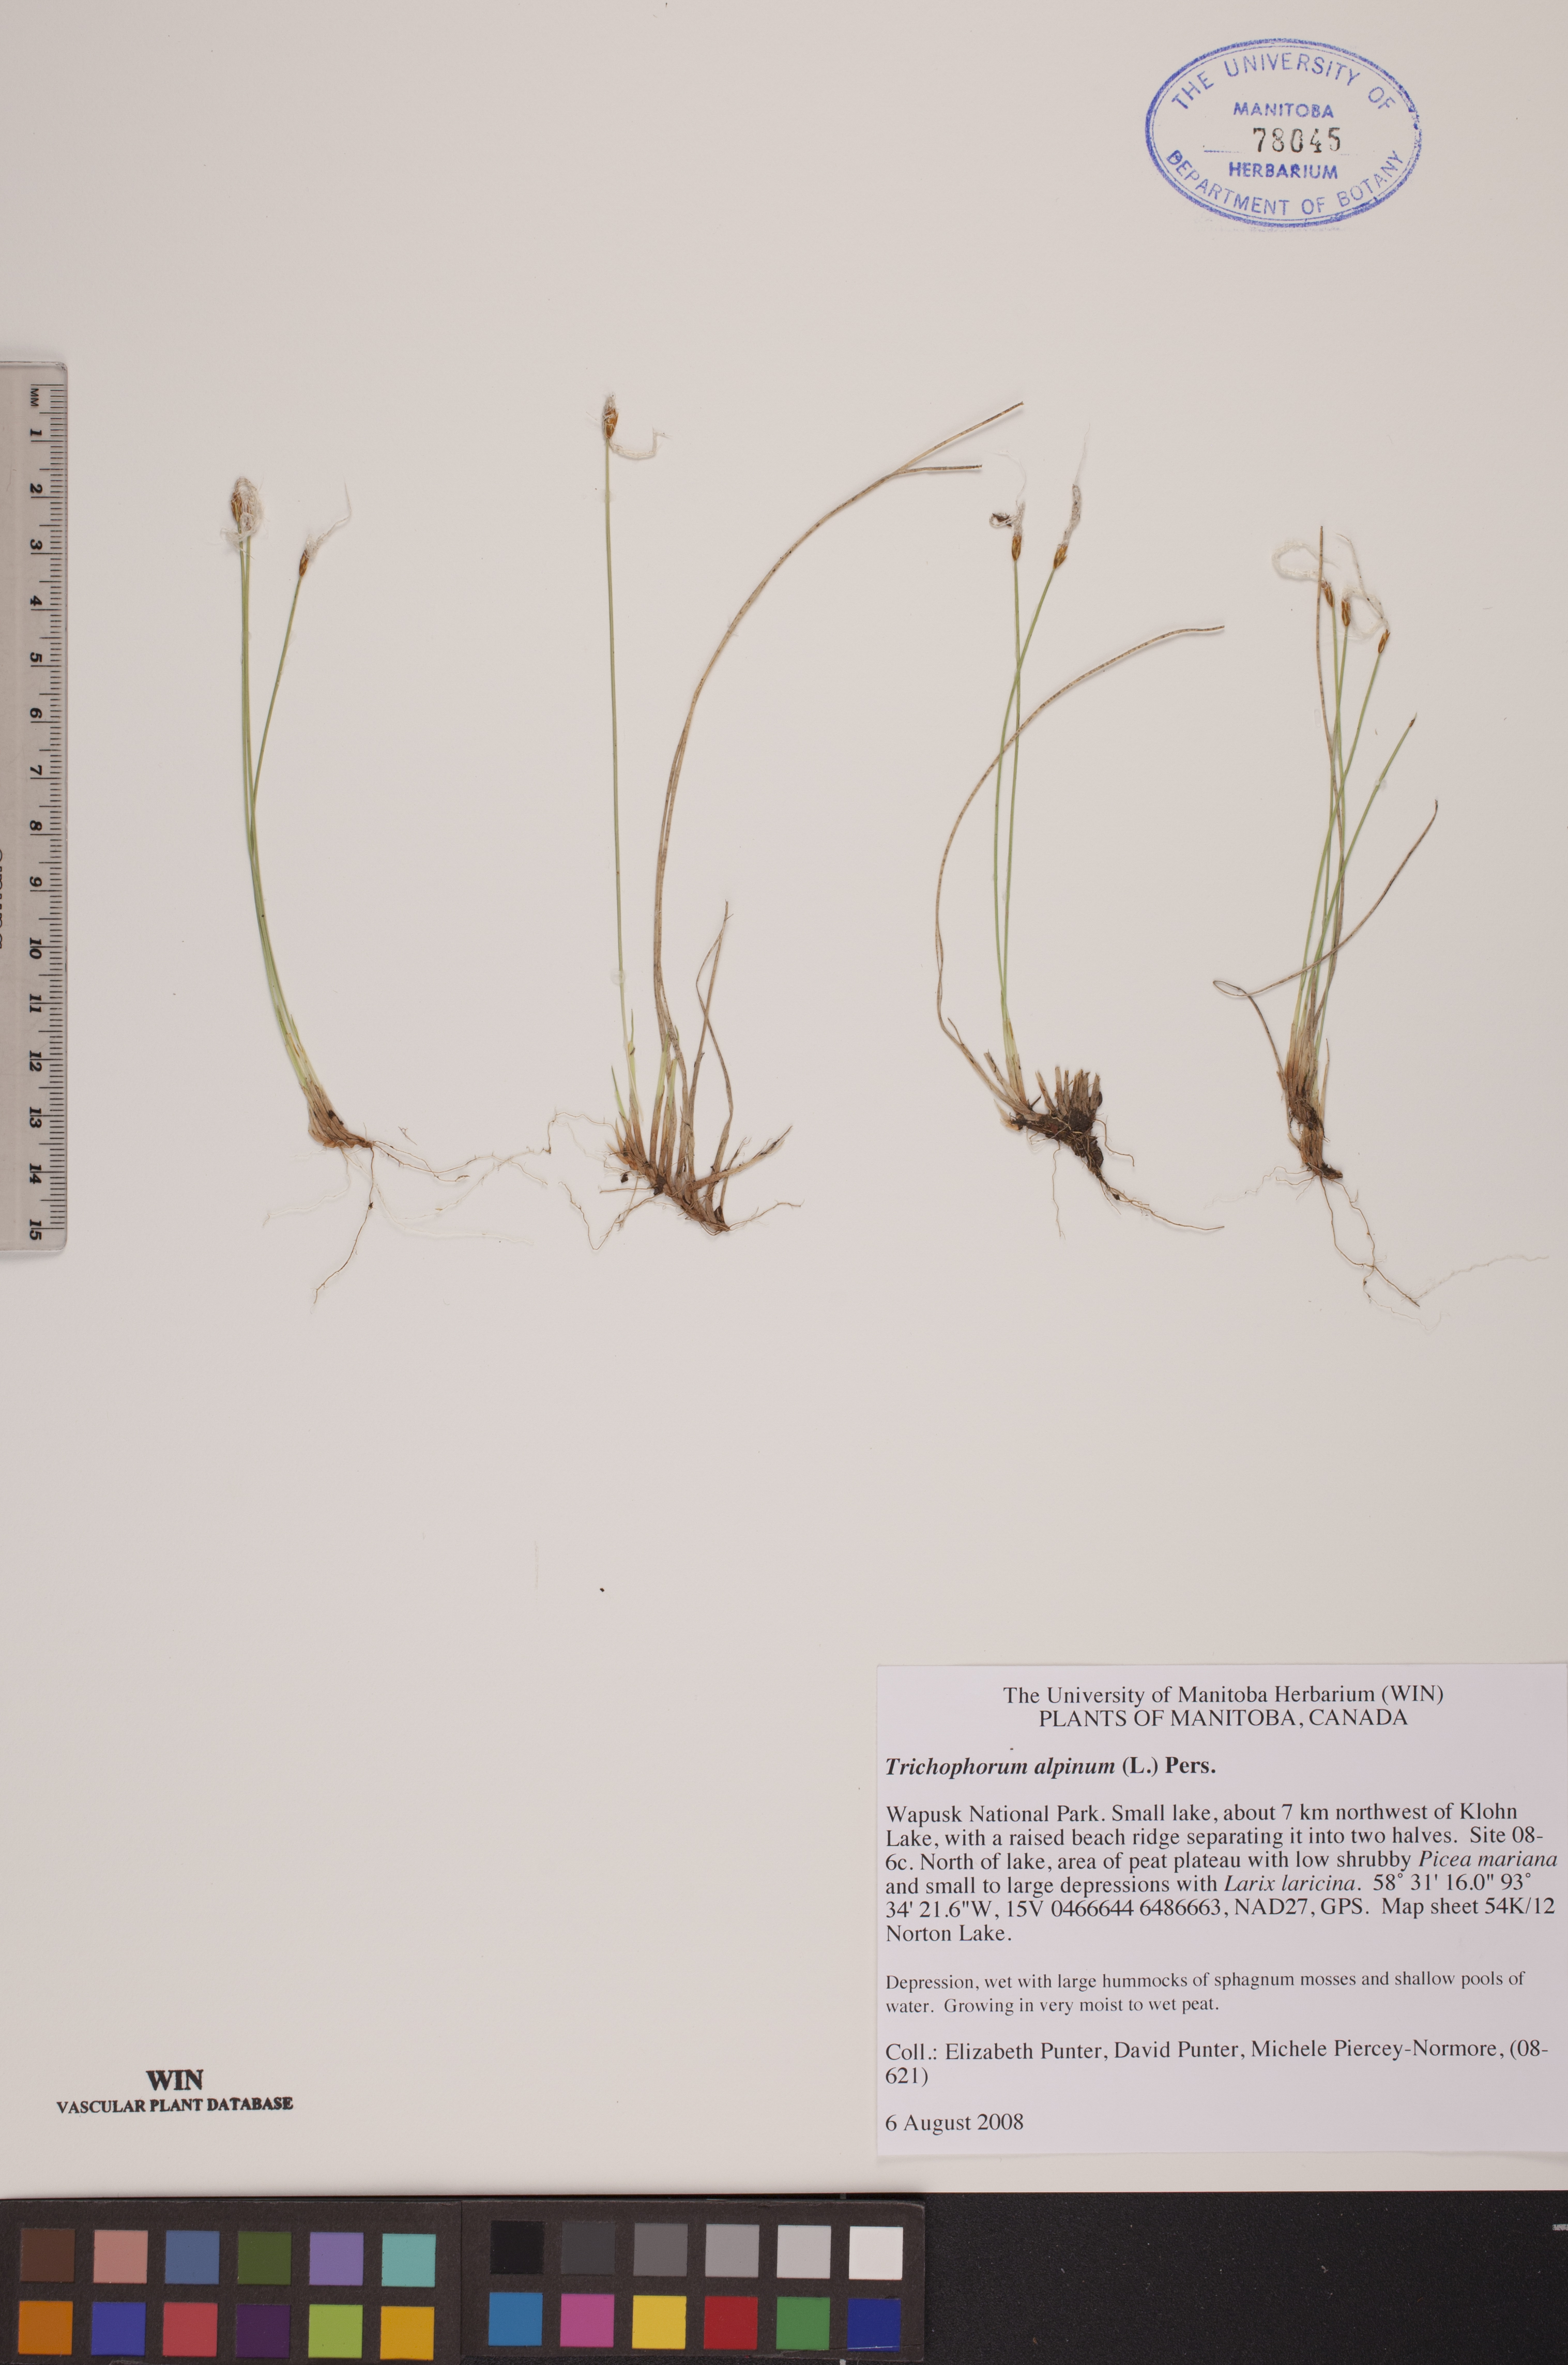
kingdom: Plantae
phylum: Tracheophyta
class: Liliopsida
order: Poales
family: Cyperaceae
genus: Trichophorum
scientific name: Trichophorum alpinum
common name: Alpine bulrush
